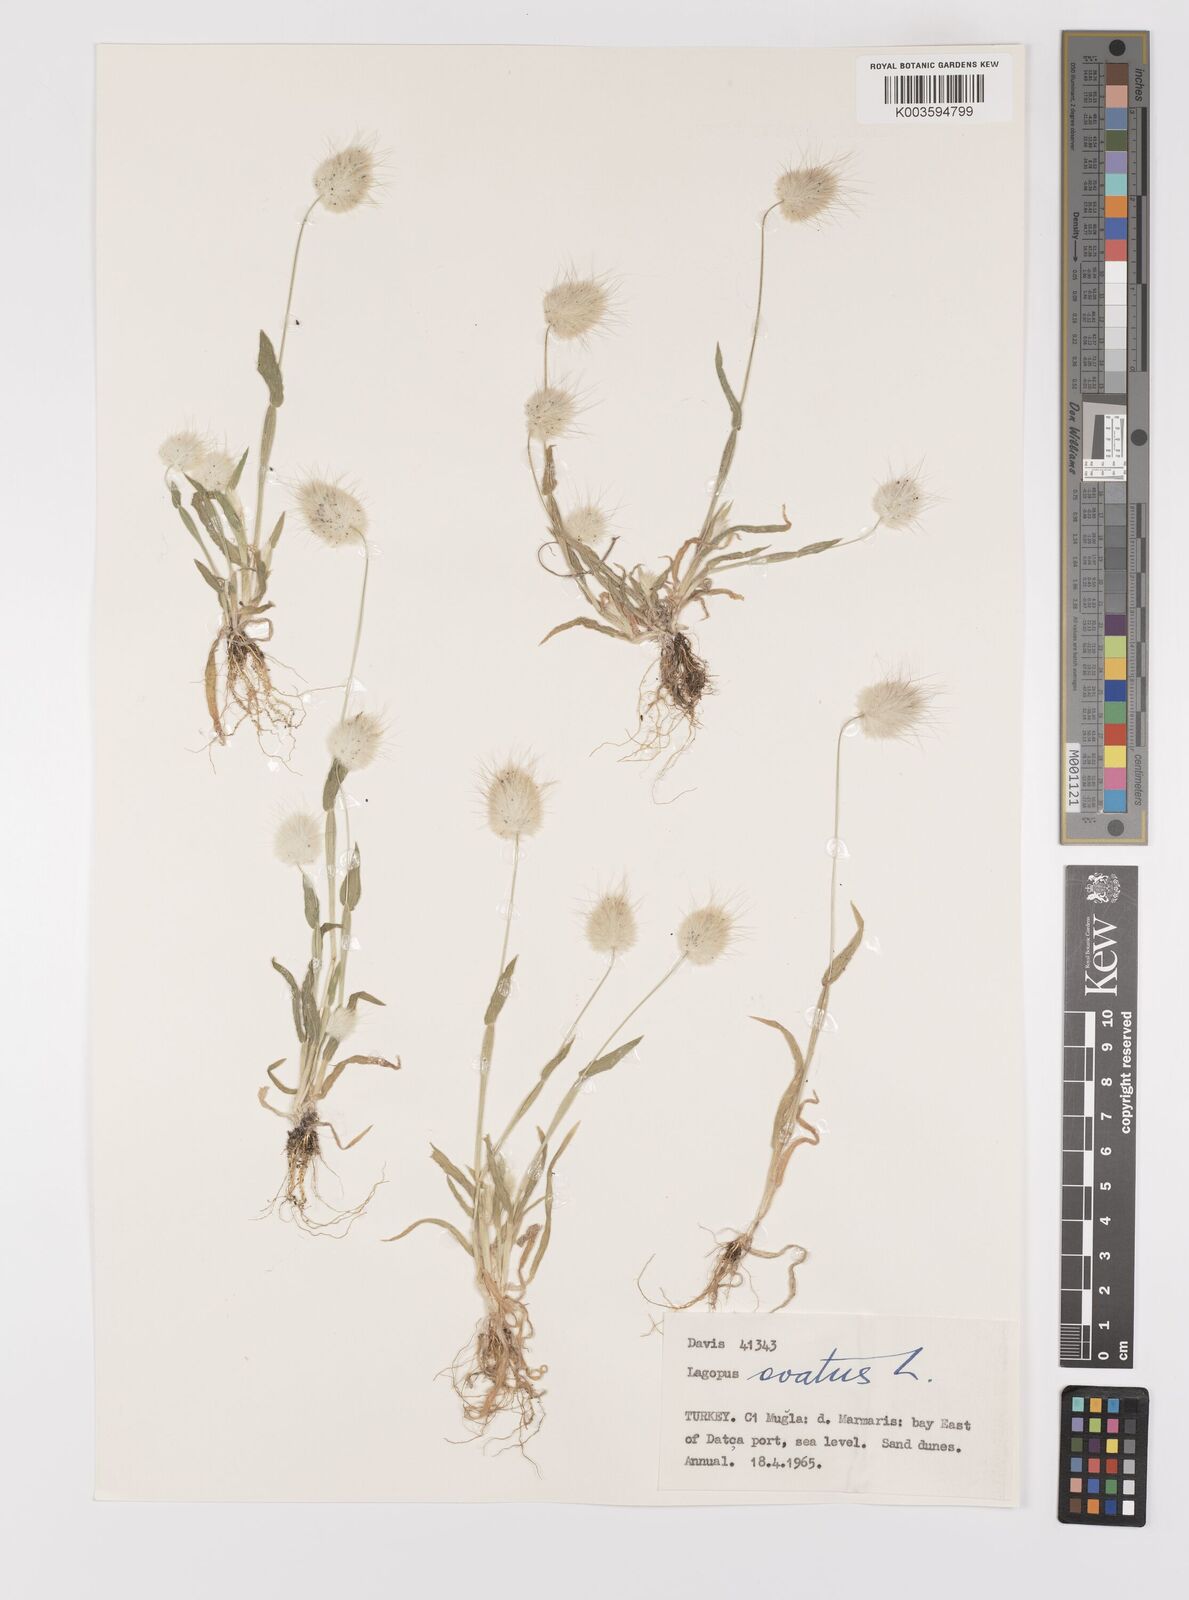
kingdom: Plantae
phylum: Tracheophyta
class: Liliopsida
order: Poales
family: Poaceae
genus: Lagurus
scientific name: Lagurus ovatus
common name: Hare's-tail
